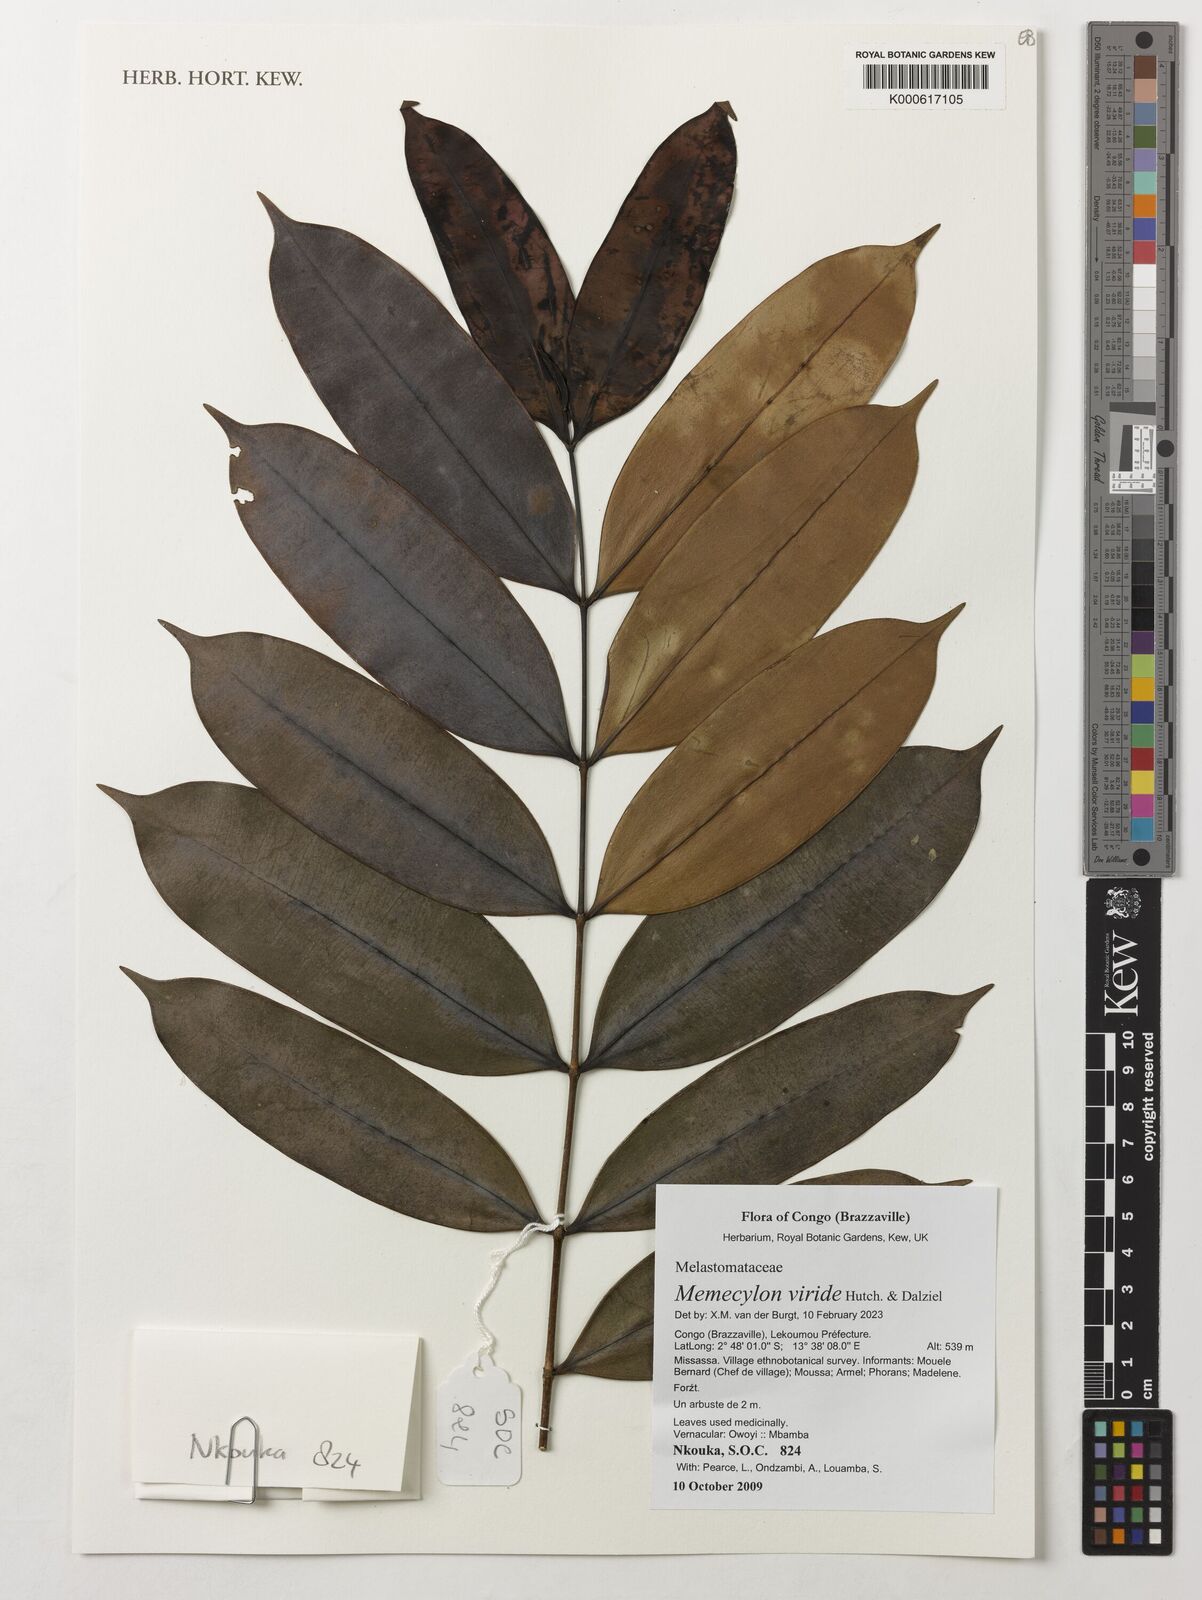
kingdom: Plantae
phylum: Tracheophyta
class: Magnoliopsida
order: Myrtales
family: Melastomataceae
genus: Memecylon
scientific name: Memecylon viride
